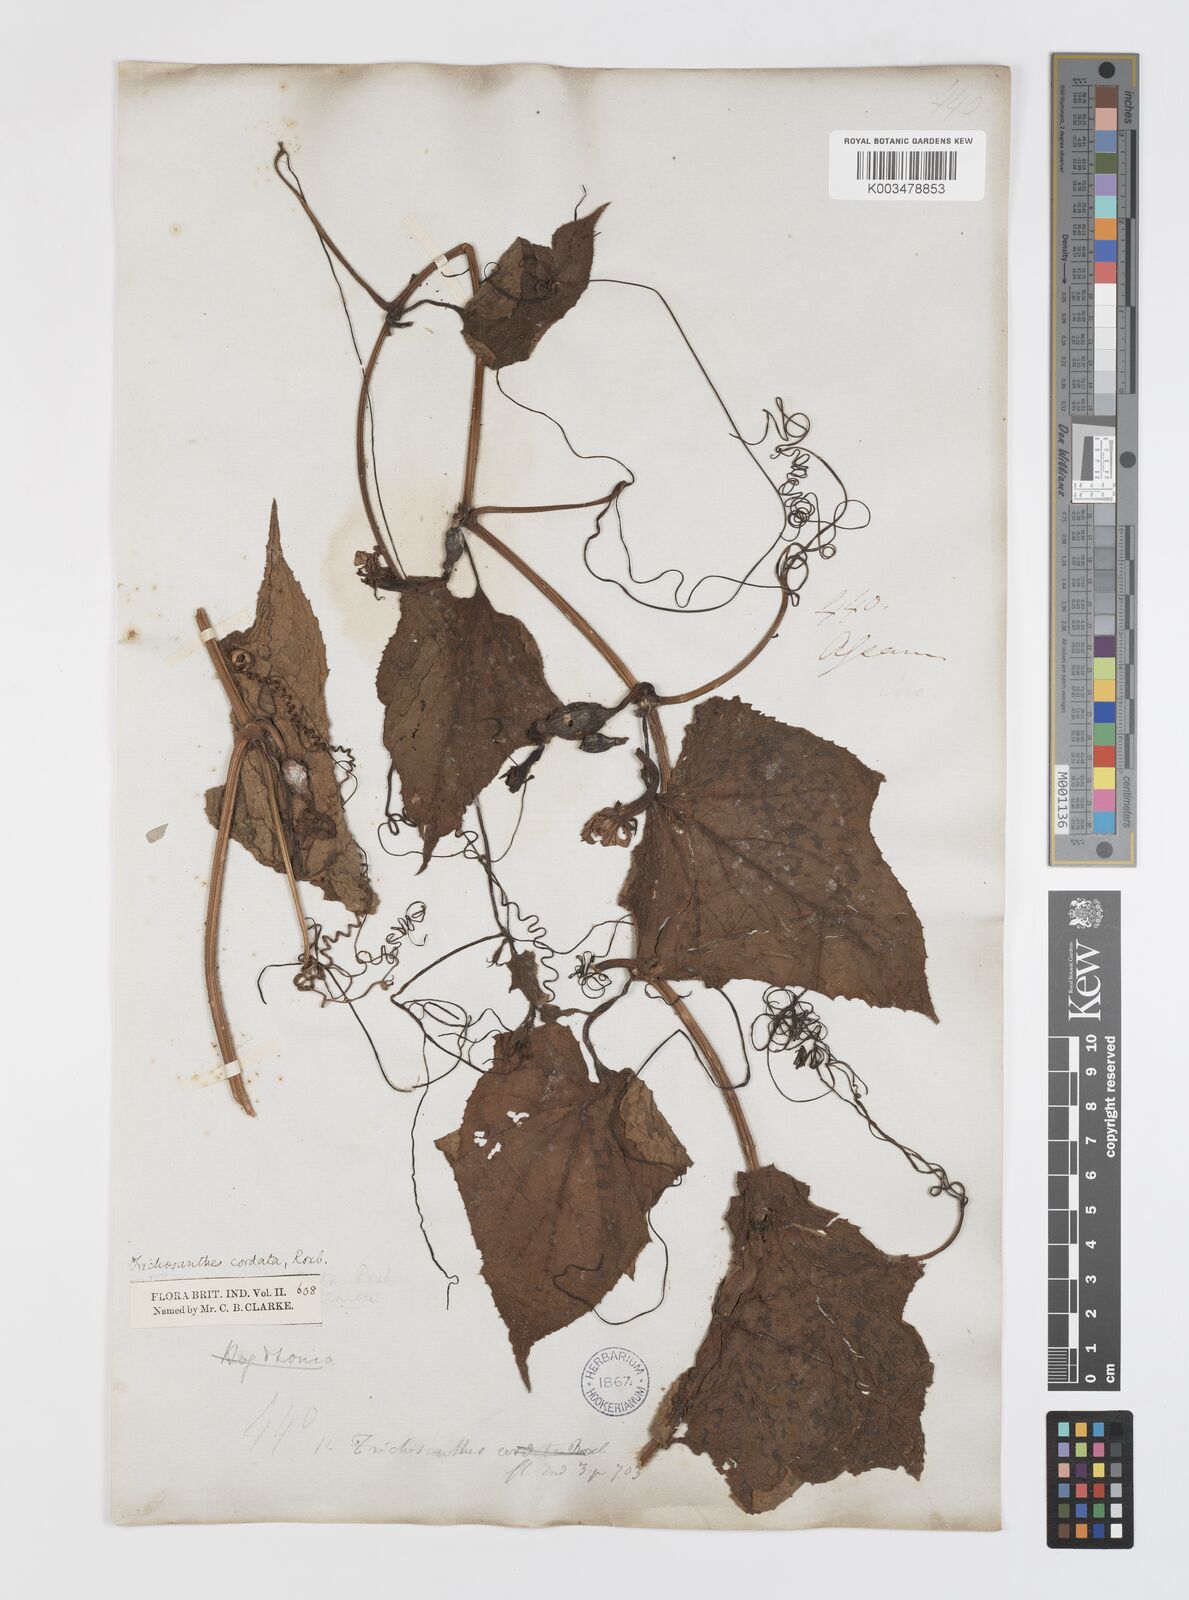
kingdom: Plantae
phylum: Tracheophyta
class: Magnoliopsida
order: Cucurbitales
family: Cucurbitaceae
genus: Trichosanthes
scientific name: Trichosanthes cordata
